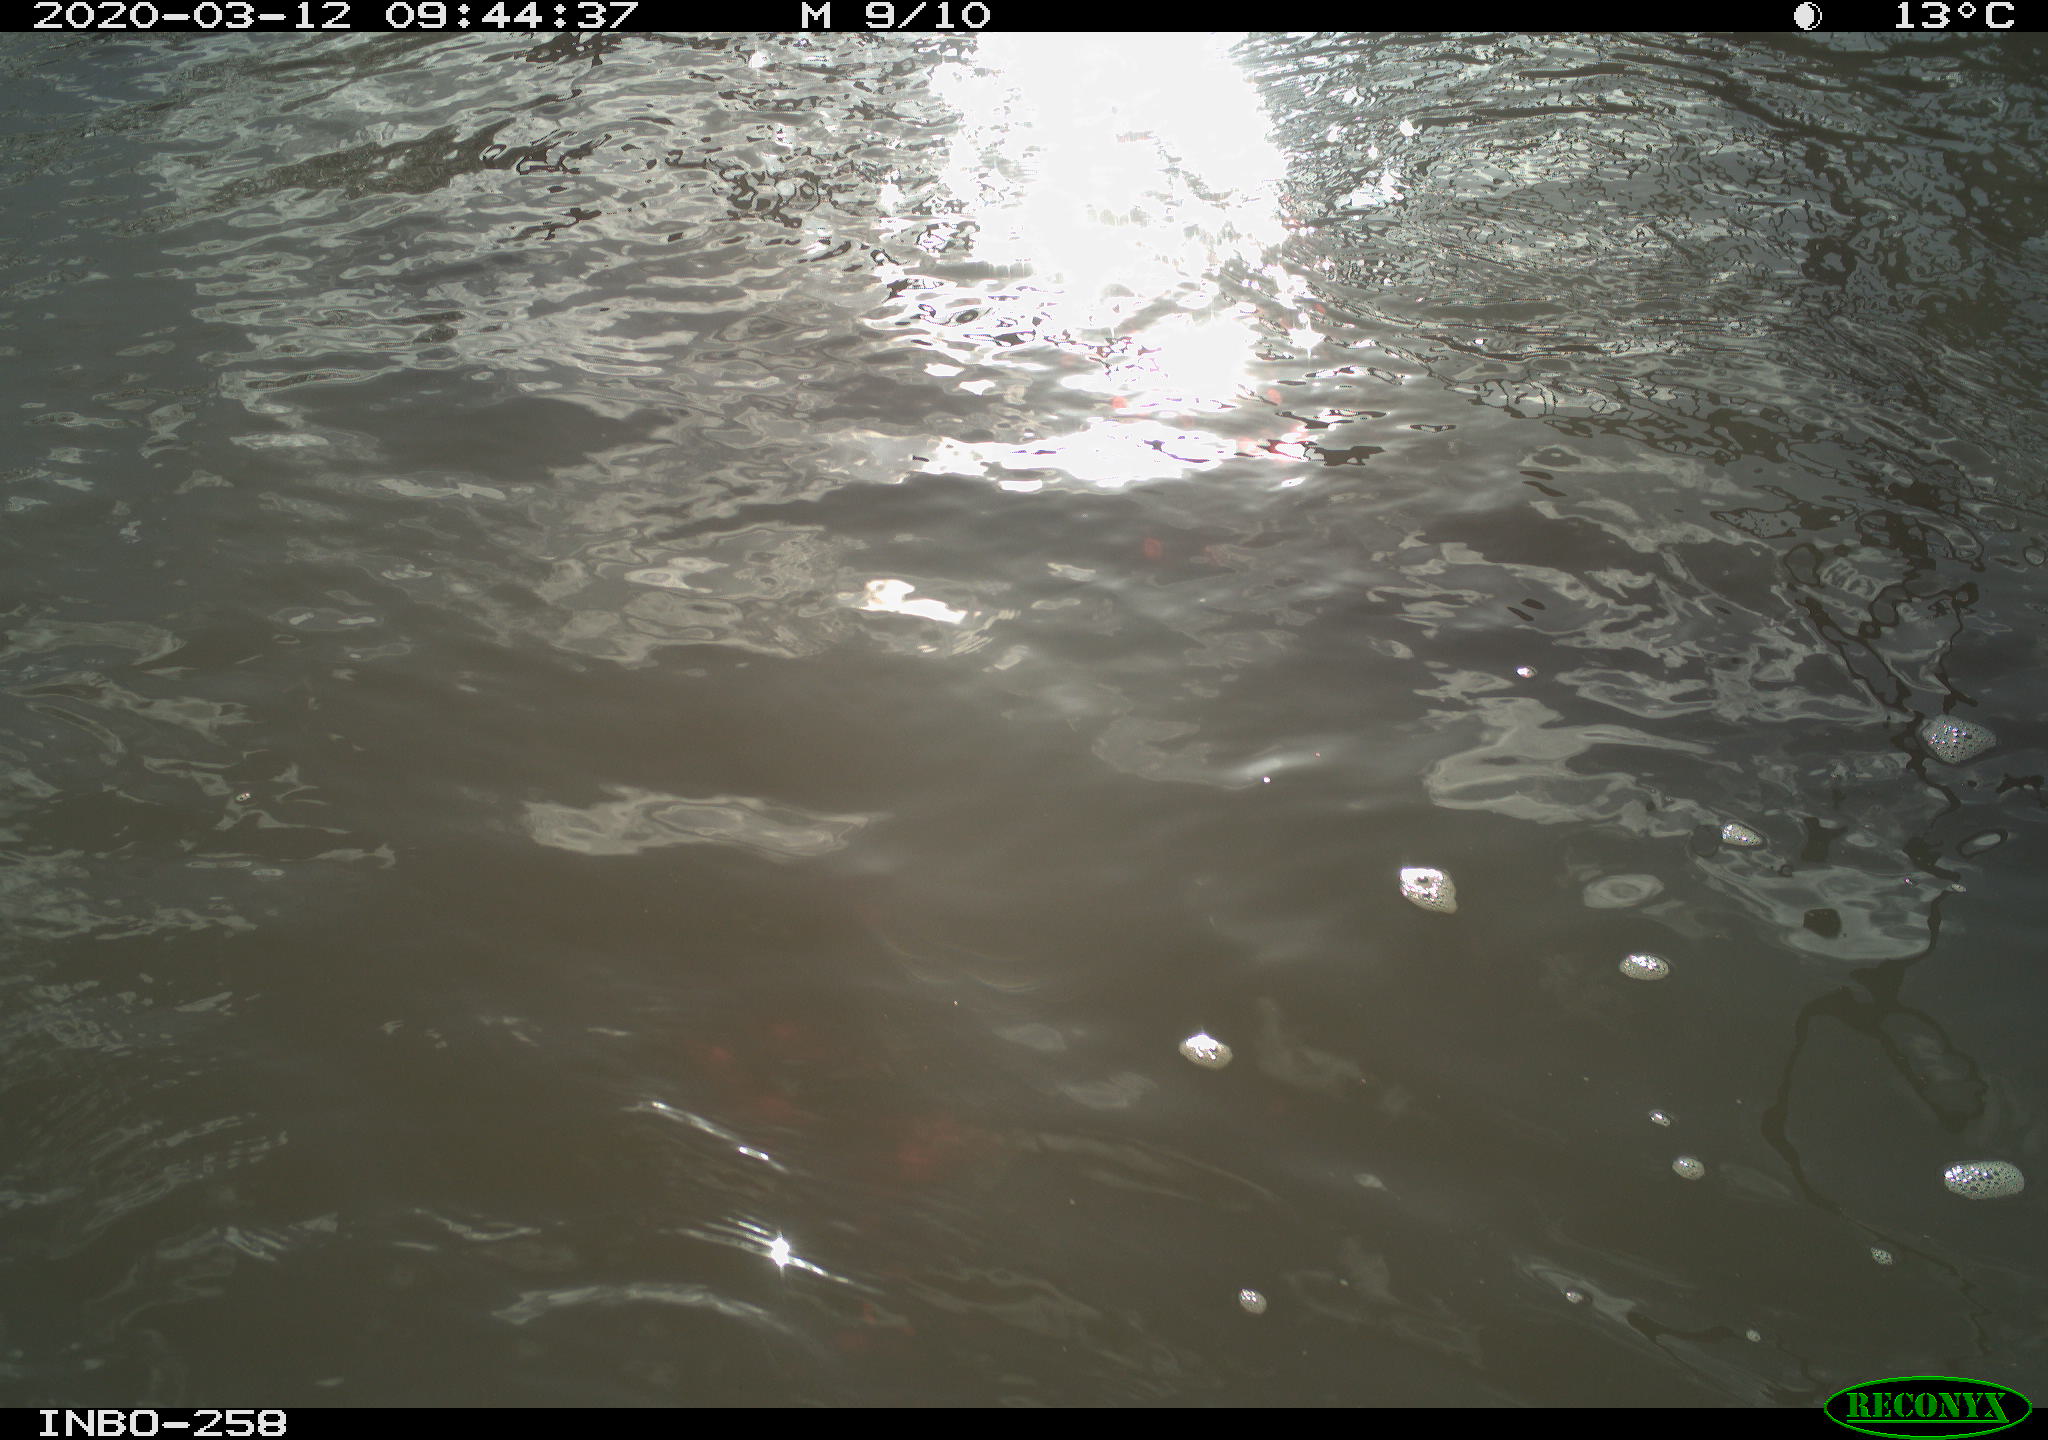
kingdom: Animalia
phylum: Chordata
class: Aves
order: Gruiformes
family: Rallidae
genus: Gallinula
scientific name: Gallinula chloropus
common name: Common moorhen
